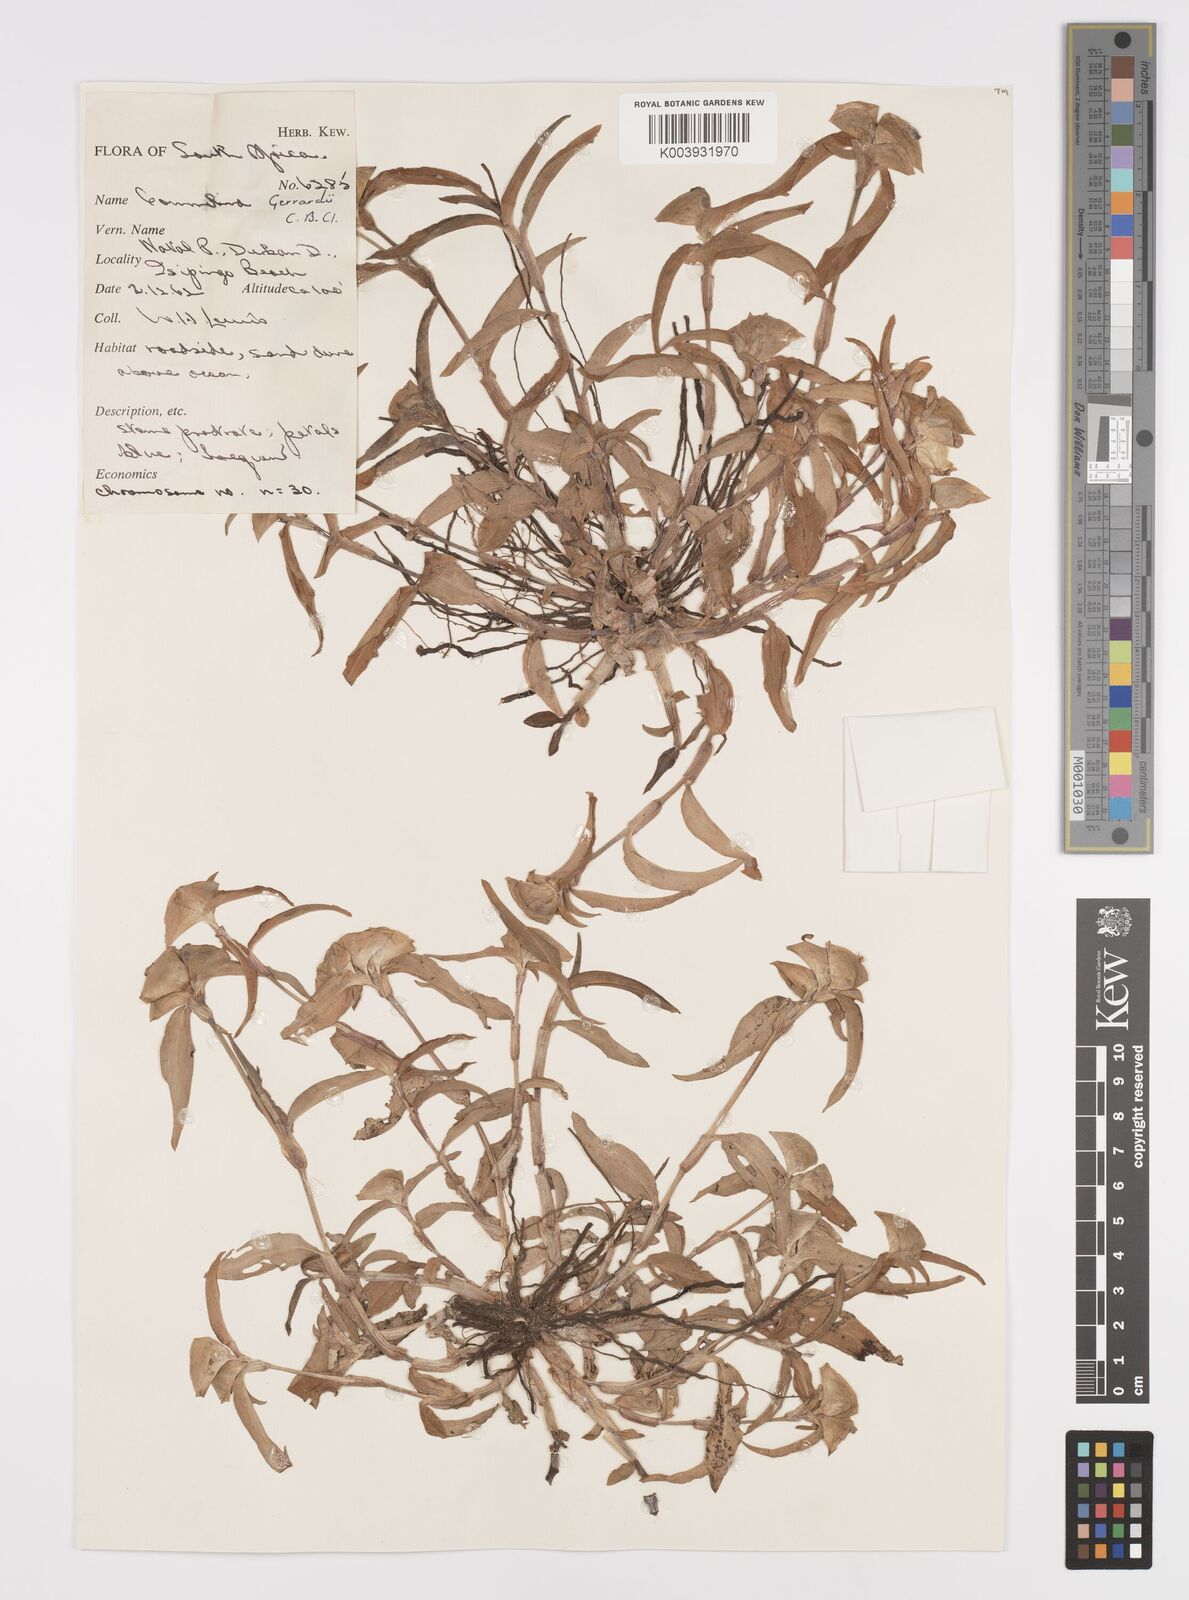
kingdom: Plantae
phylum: Tracheophyta
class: Liliopsida
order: Commelinales
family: Commelinaceae
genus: Commelina
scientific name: Commelina erecta
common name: Blousel blommetjie
